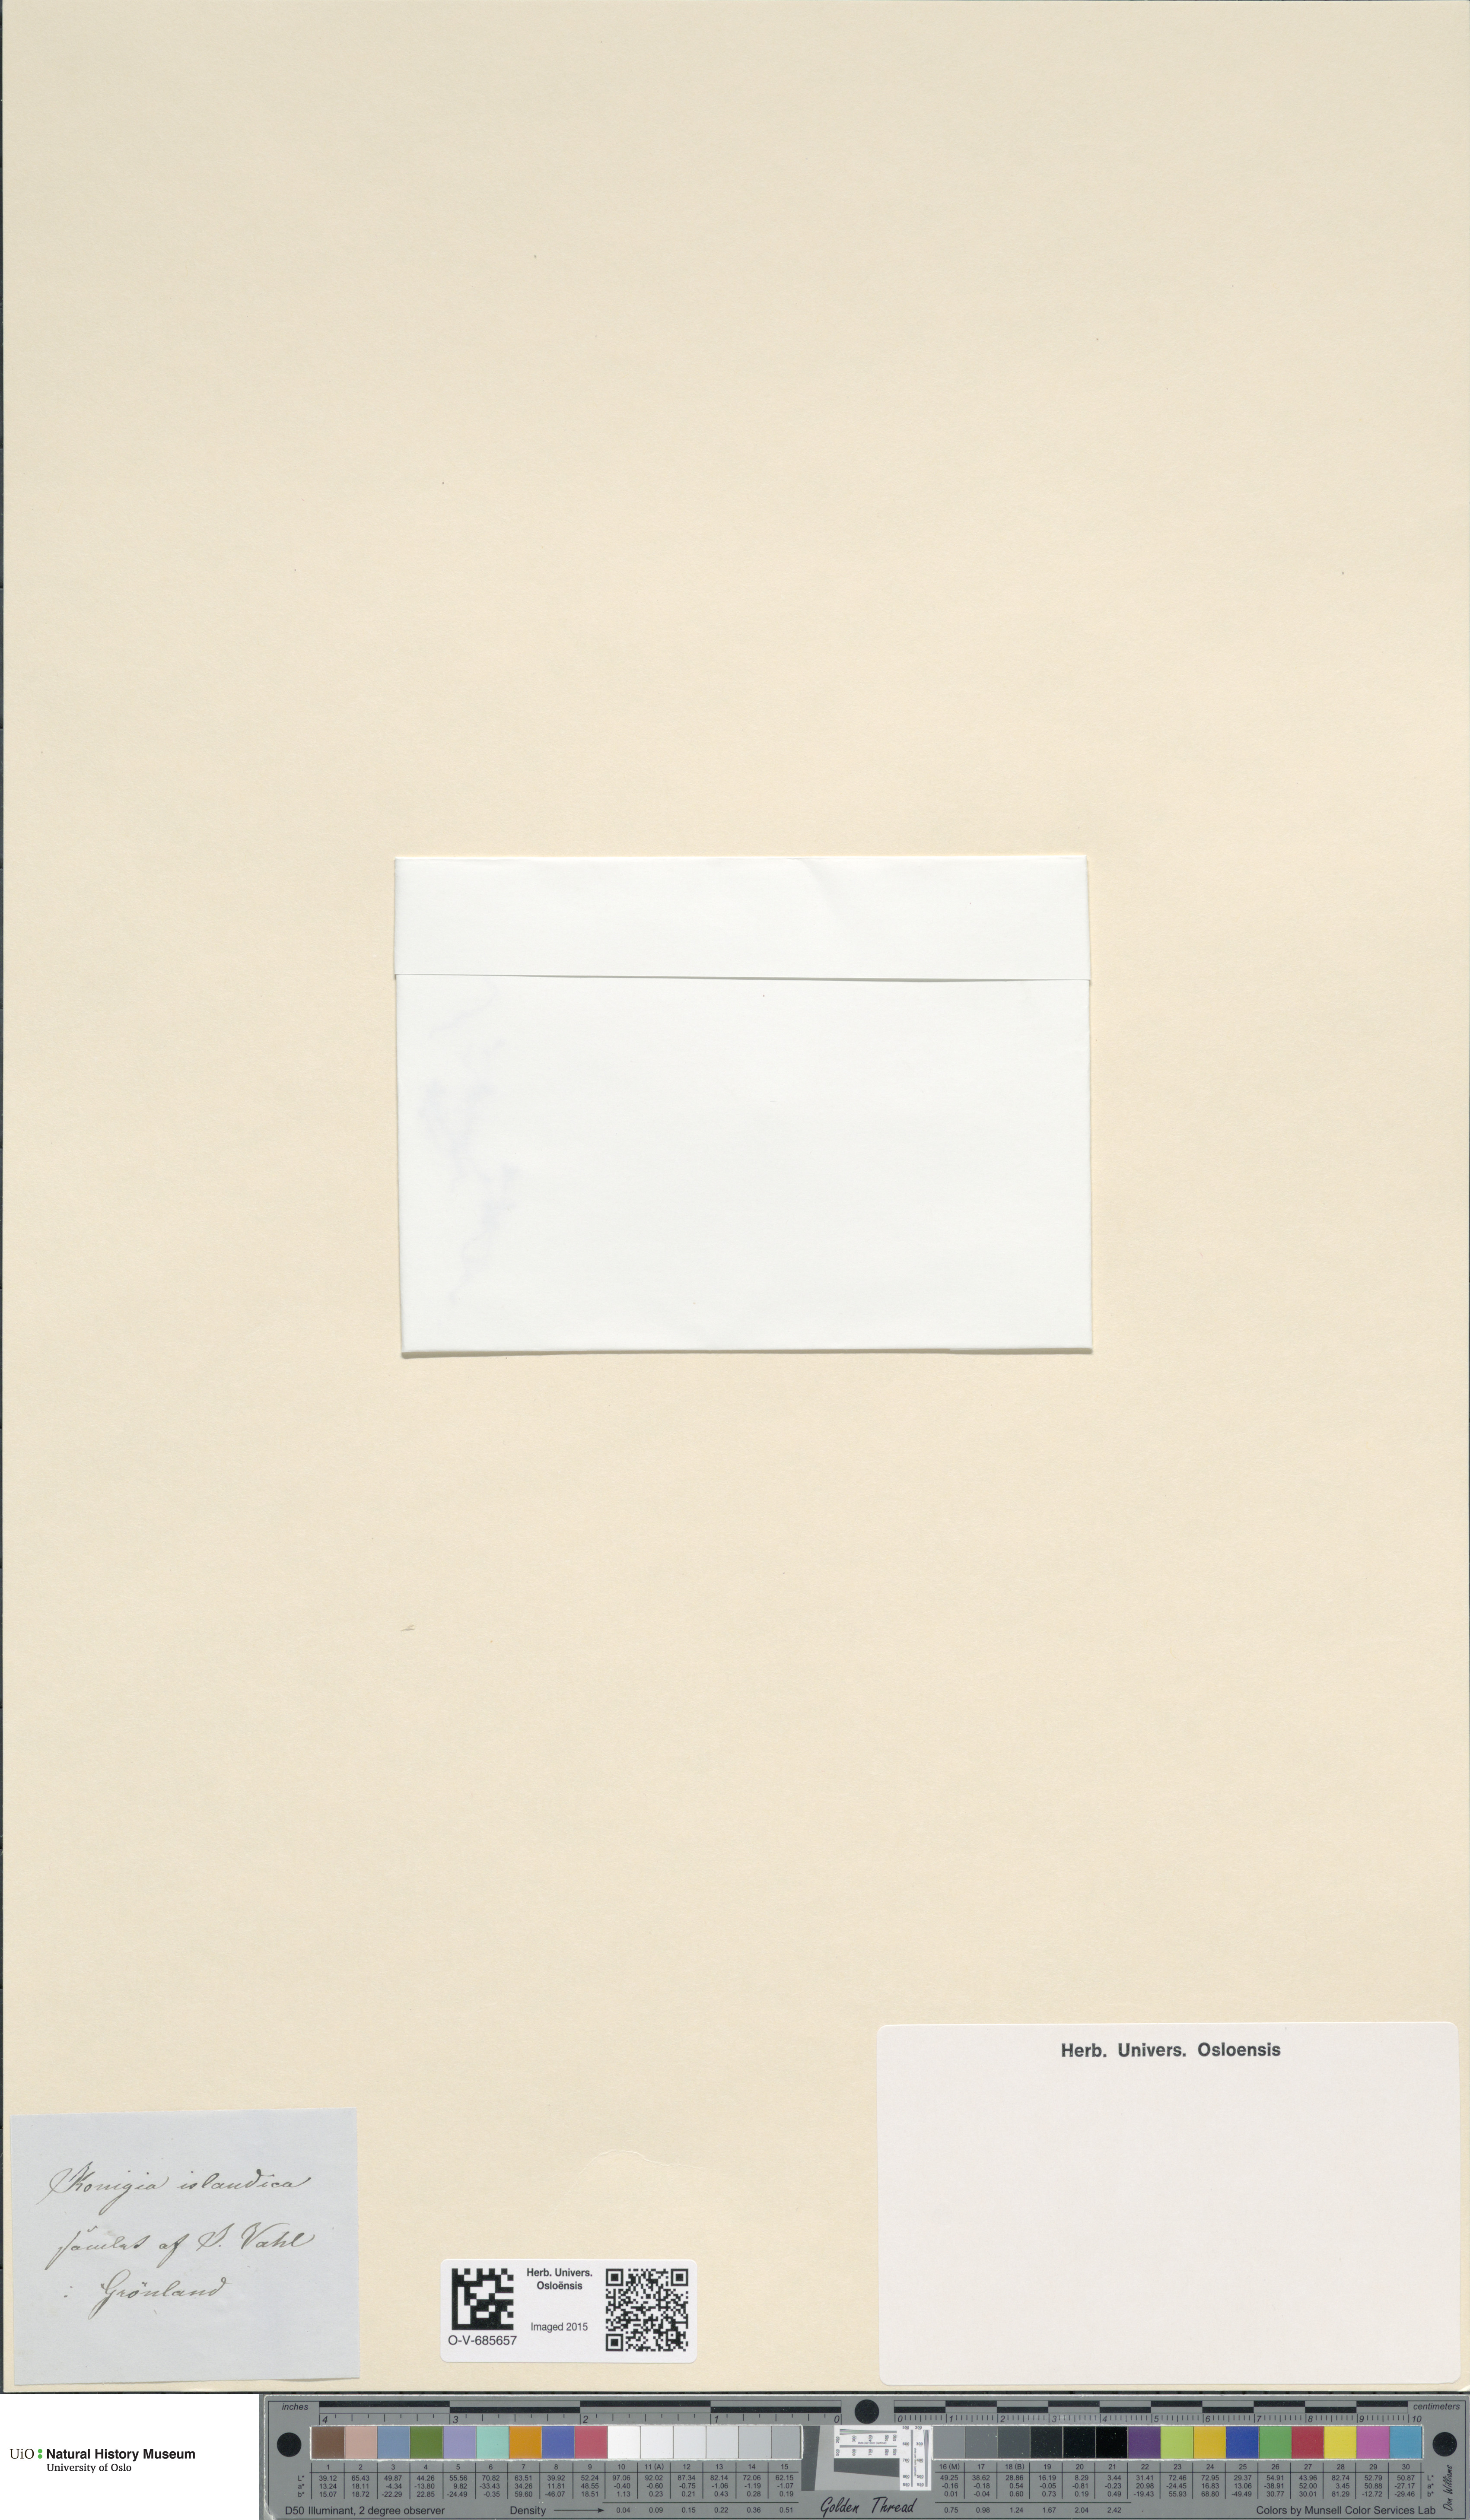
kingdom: Plantae
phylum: Tracheophyta
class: Magnoliopsida
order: Caryophyllales
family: Polygonaceae
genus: Koenigia
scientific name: Koenigia islandica
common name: Iceland-purslane
